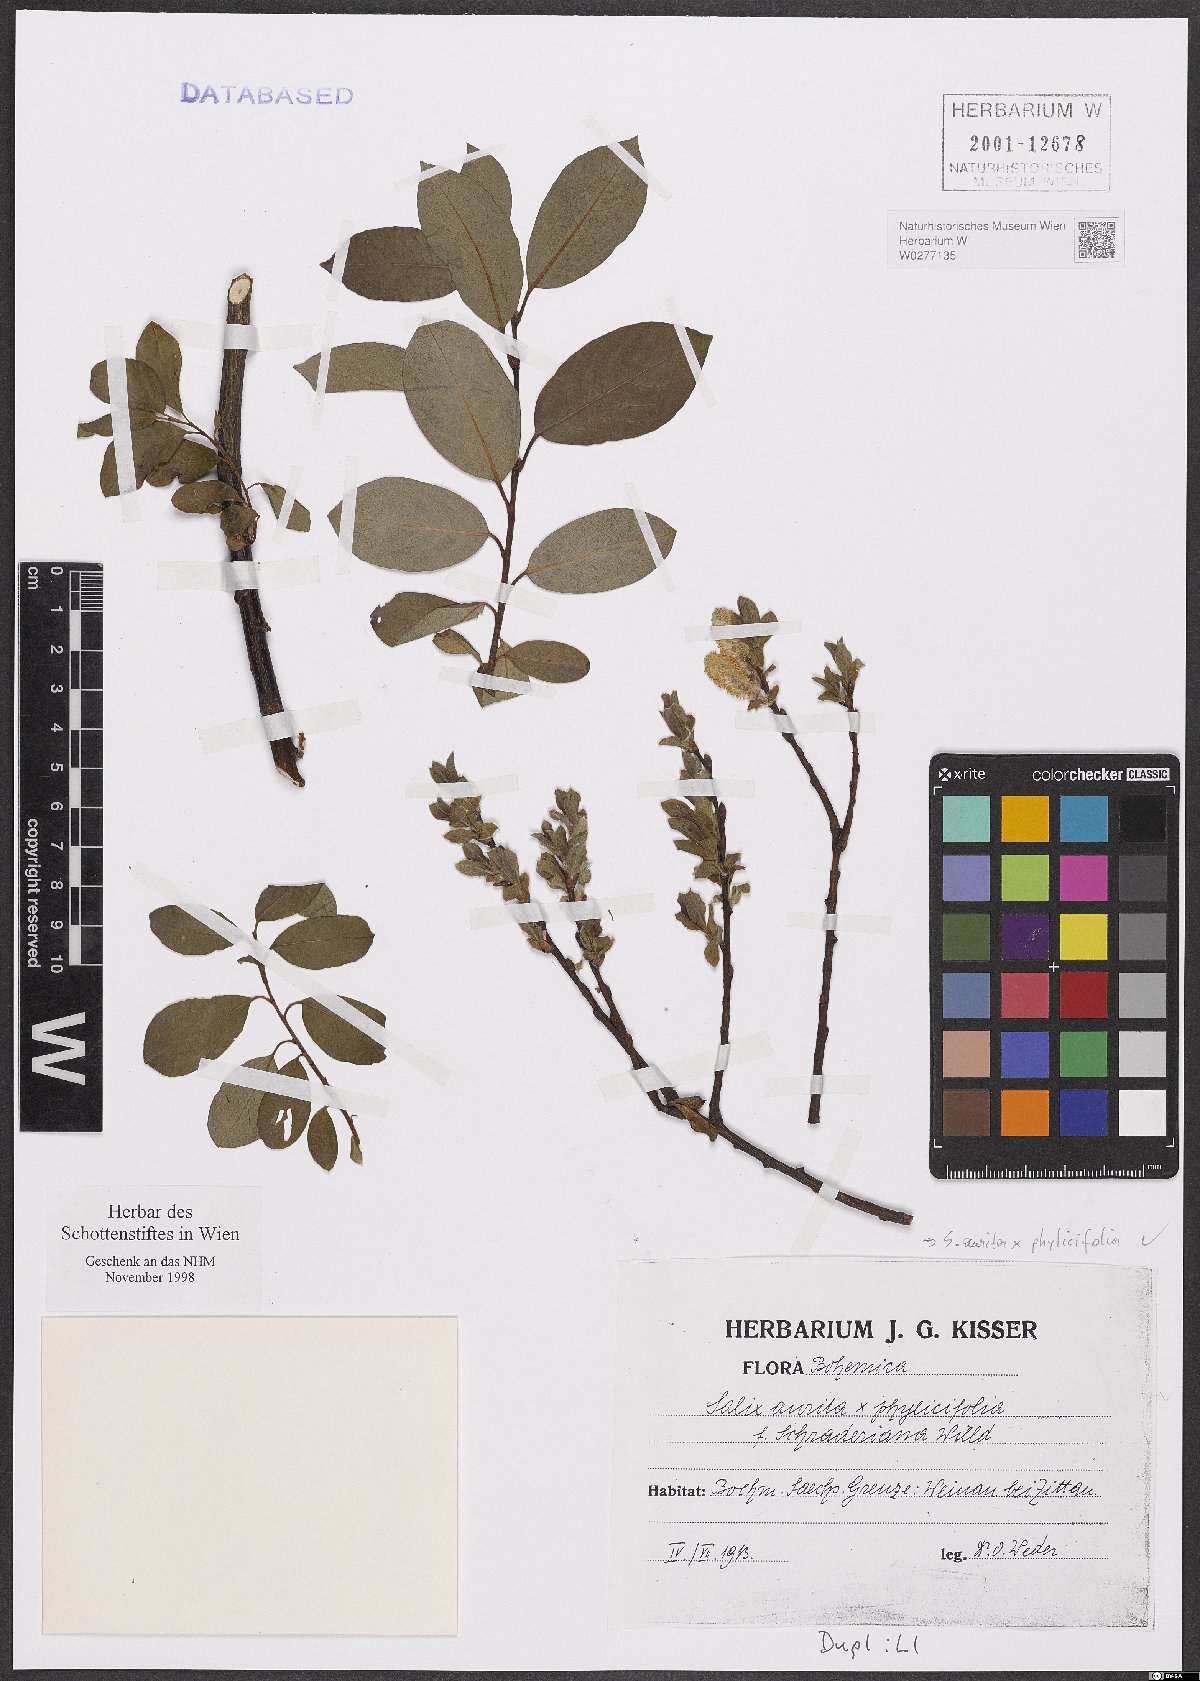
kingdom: Plantae
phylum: Tracheophyta
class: Magnoliopsida
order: Malpighiales
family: Salicaceae
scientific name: Salicaceae
